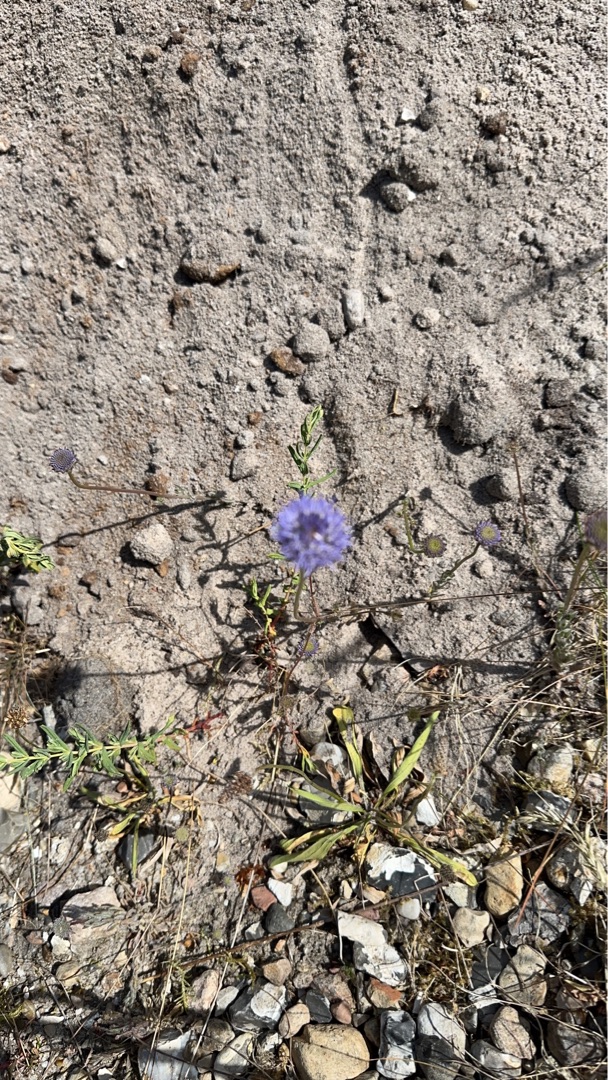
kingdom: Plantae
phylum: Tracheophyta
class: Magnoliopsida
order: Asterales
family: Campanulaceae
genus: Jasione
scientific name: Jasione montana
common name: Blåmunke
